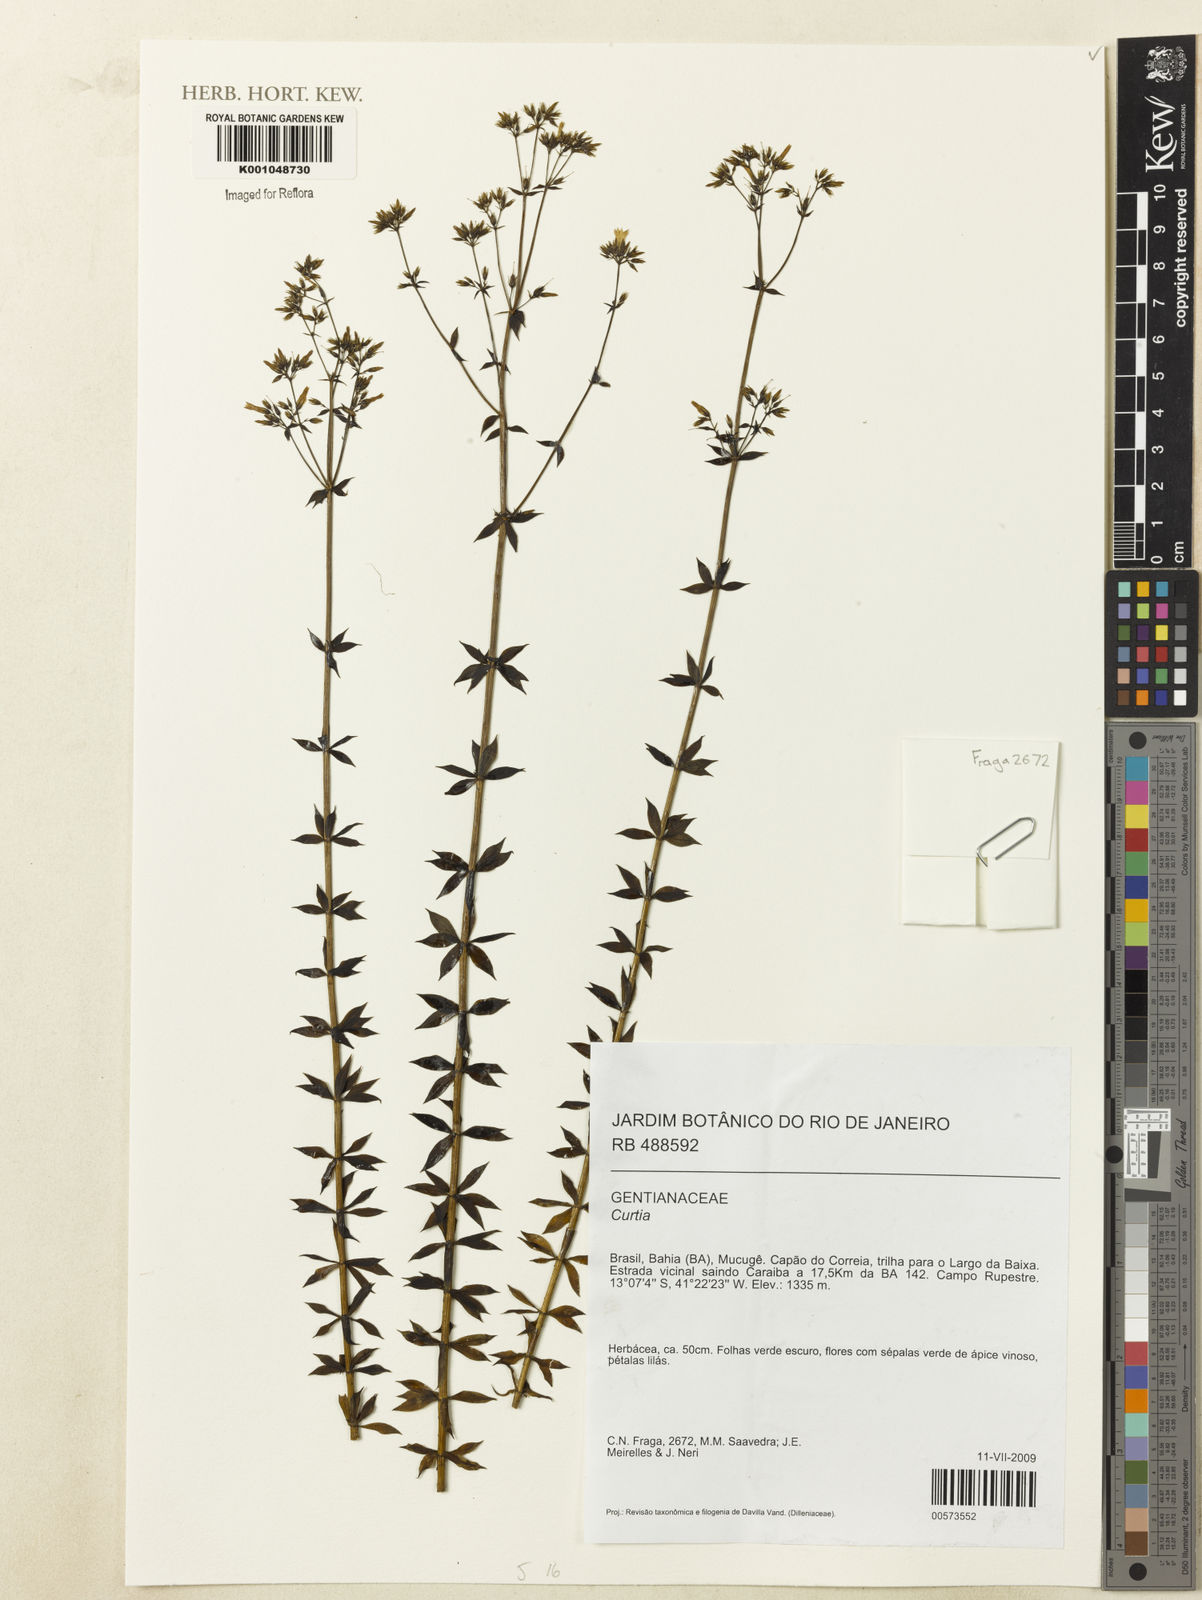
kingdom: Plantae
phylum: Tracheophyta
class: Magnoliopsida
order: Gentianales
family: Gentianaceae
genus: Curtia
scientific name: Curtia
